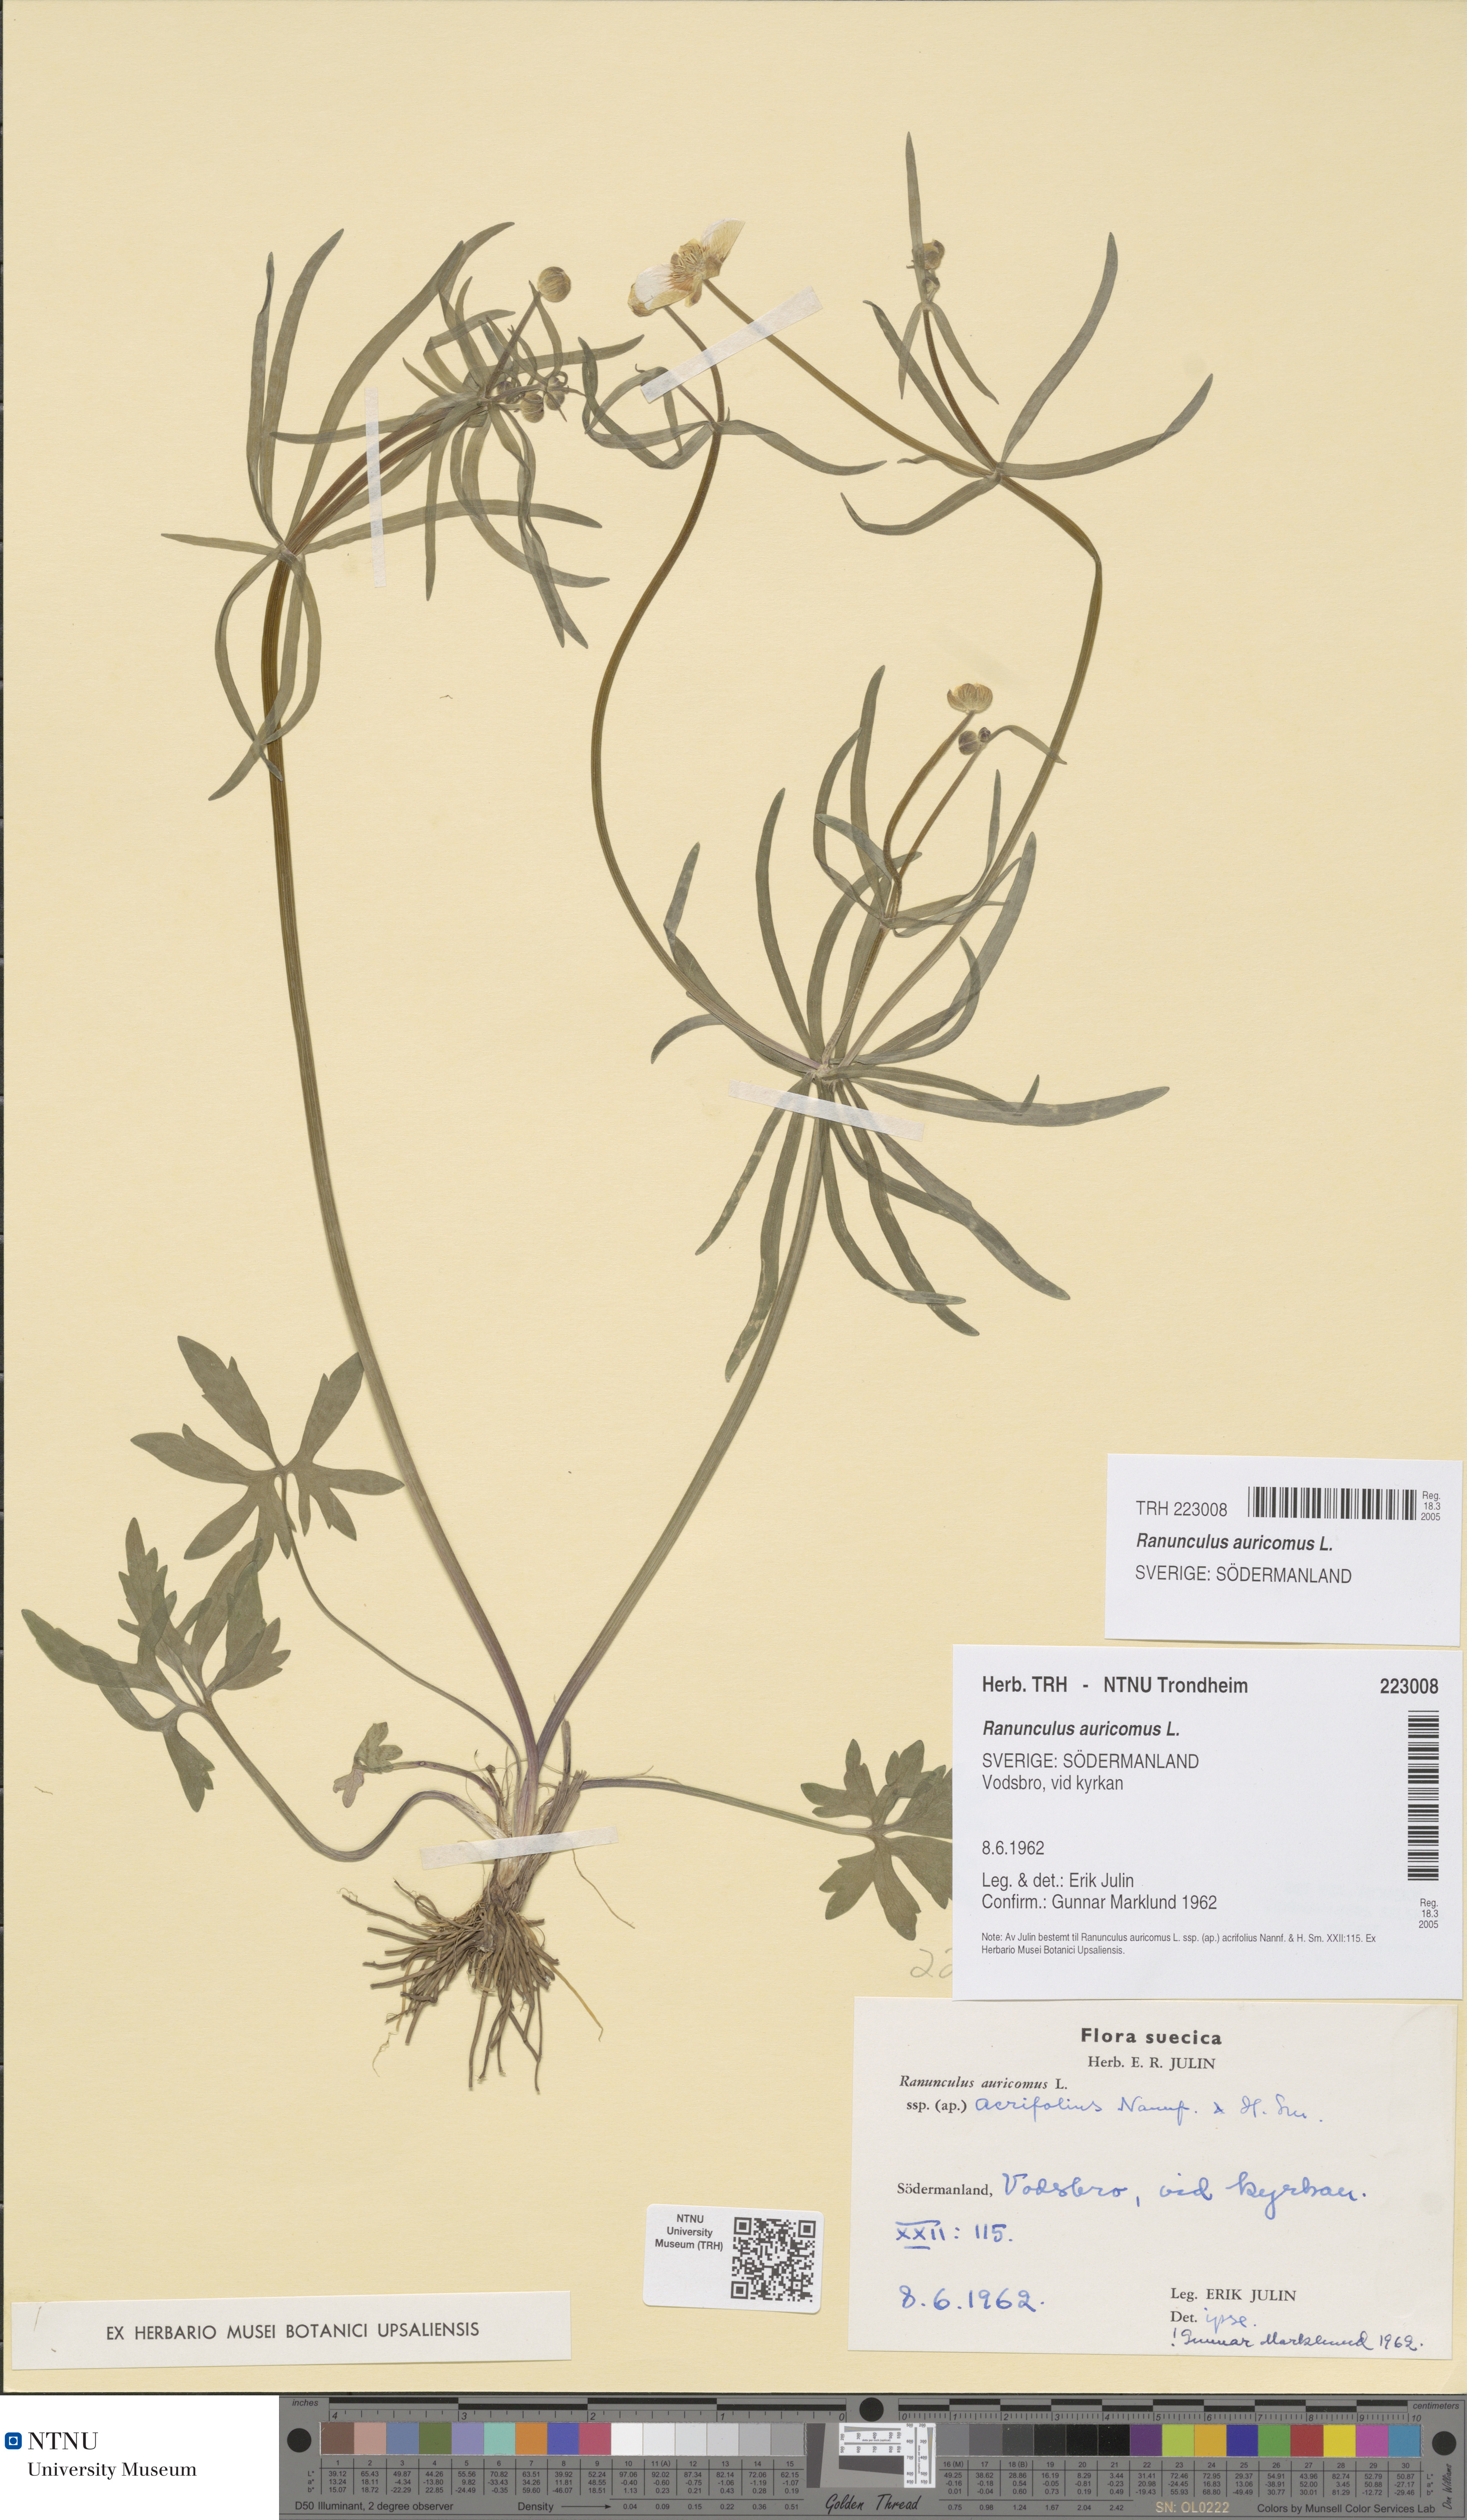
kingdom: Plantae
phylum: Tracheophyta
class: Magnoliopsida
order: Ranunculales
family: Ranunculaceae
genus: Ranunculus
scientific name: Ranunculus auricomus
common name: Goldilocks buttercup
